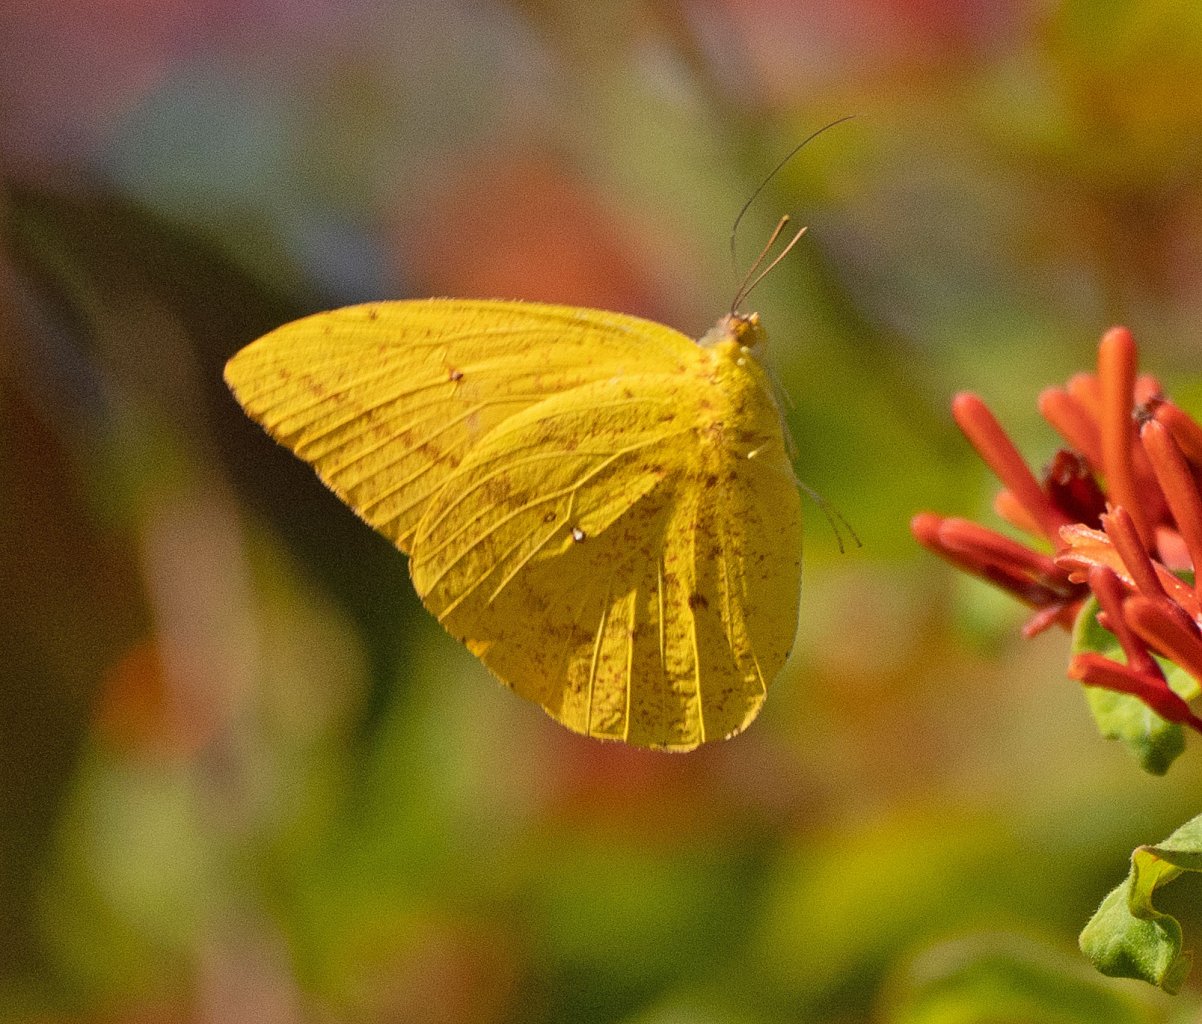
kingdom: Animalia
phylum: Arthropoda
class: Insecta
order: Lepidoptera
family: Pieridae
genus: Phoebis
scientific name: Phoebis agarithe
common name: Large Orange Sulphur
